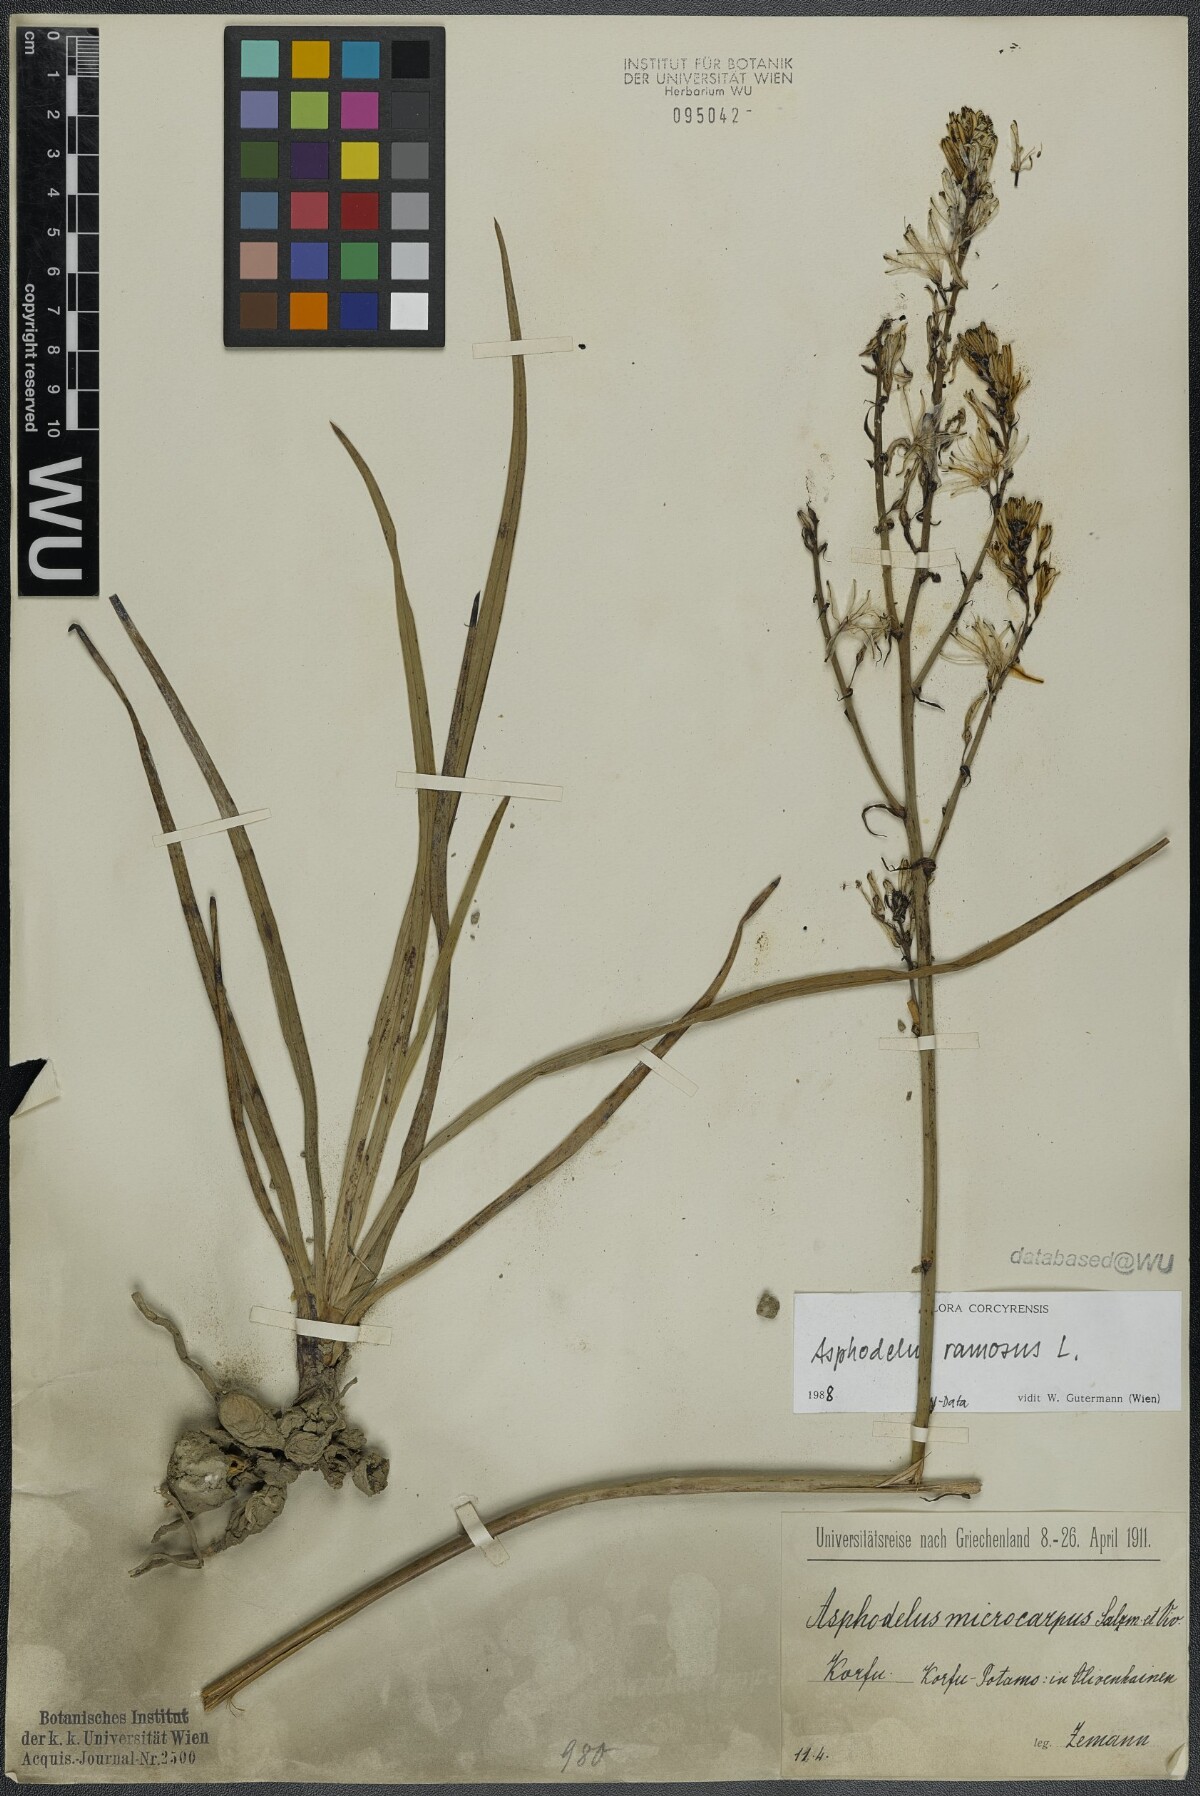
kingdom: Plantae
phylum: Tracheophyta
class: Liliopsida
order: Asparagales
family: Asphodelaceae
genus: Asphodelus
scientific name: Asphodelus ramosus
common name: Silverrod
